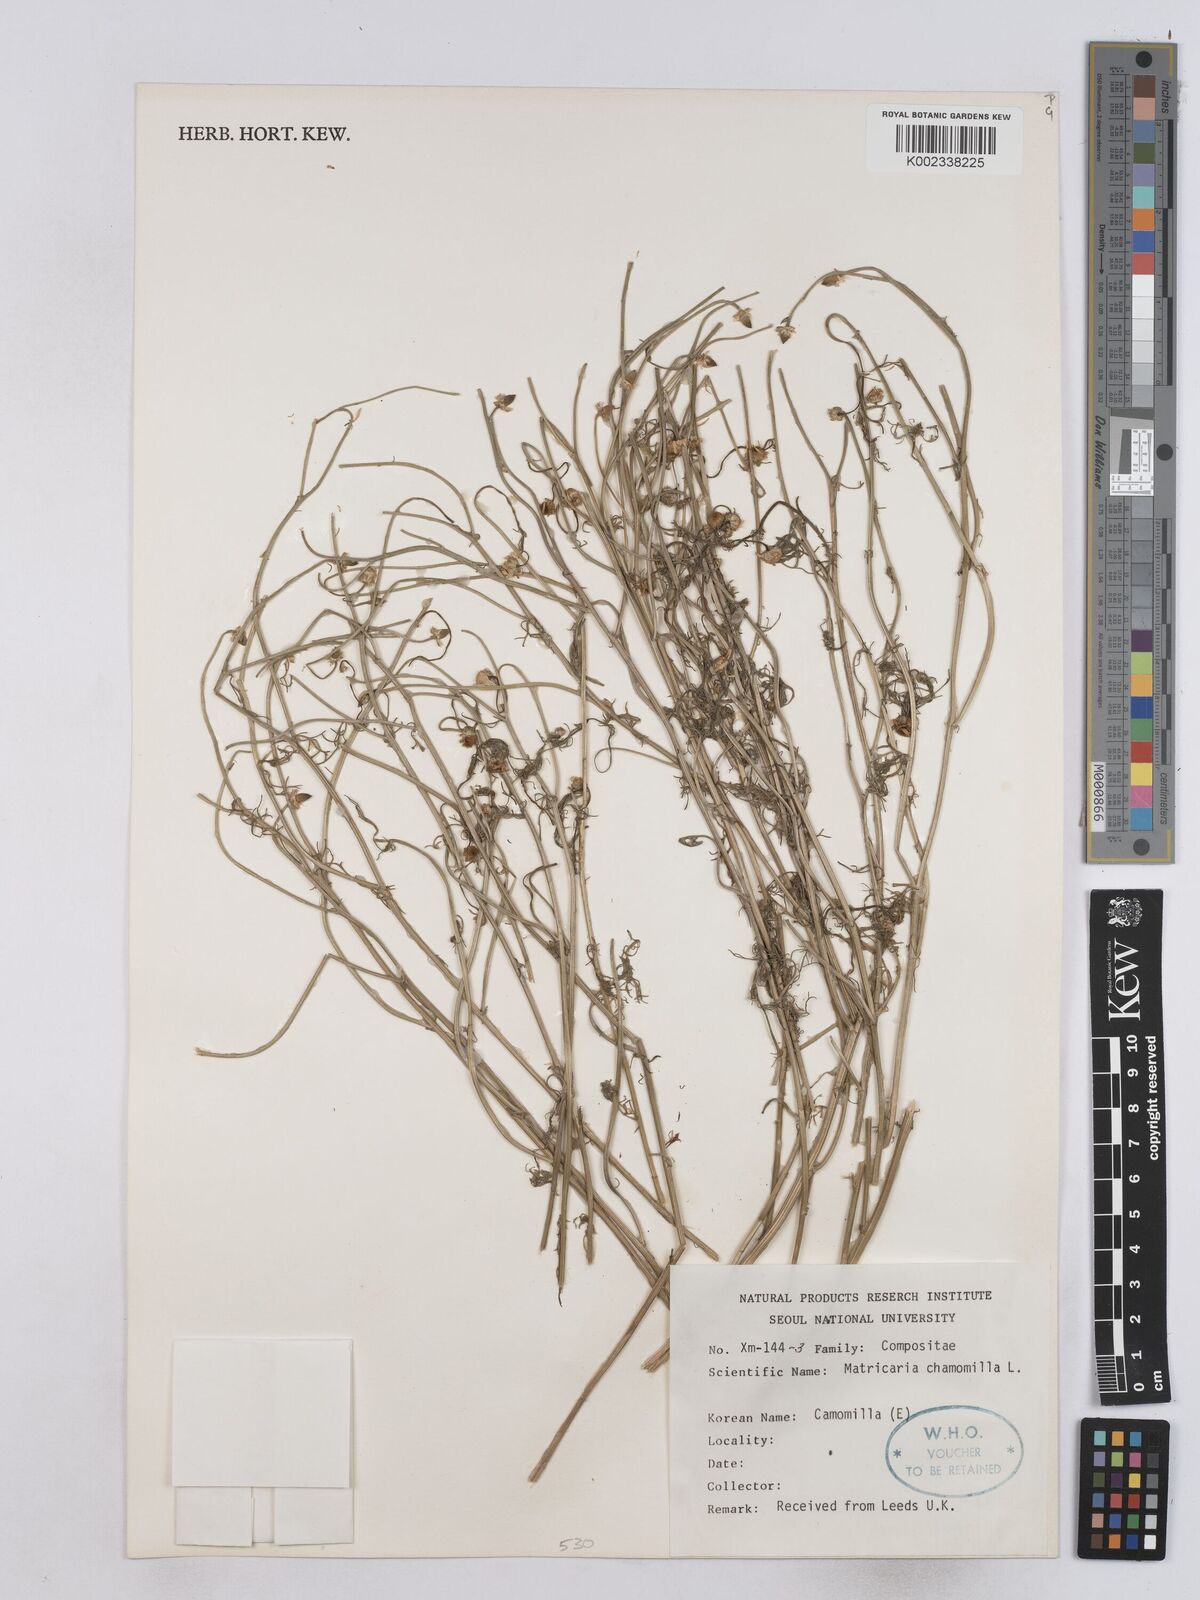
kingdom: Plantae
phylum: Tracheophyta
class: Magnoliopsida
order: Asterales
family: Asteraceae
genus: Matricaria
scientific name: Matricaria chamomilla
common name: Scented mayweed
